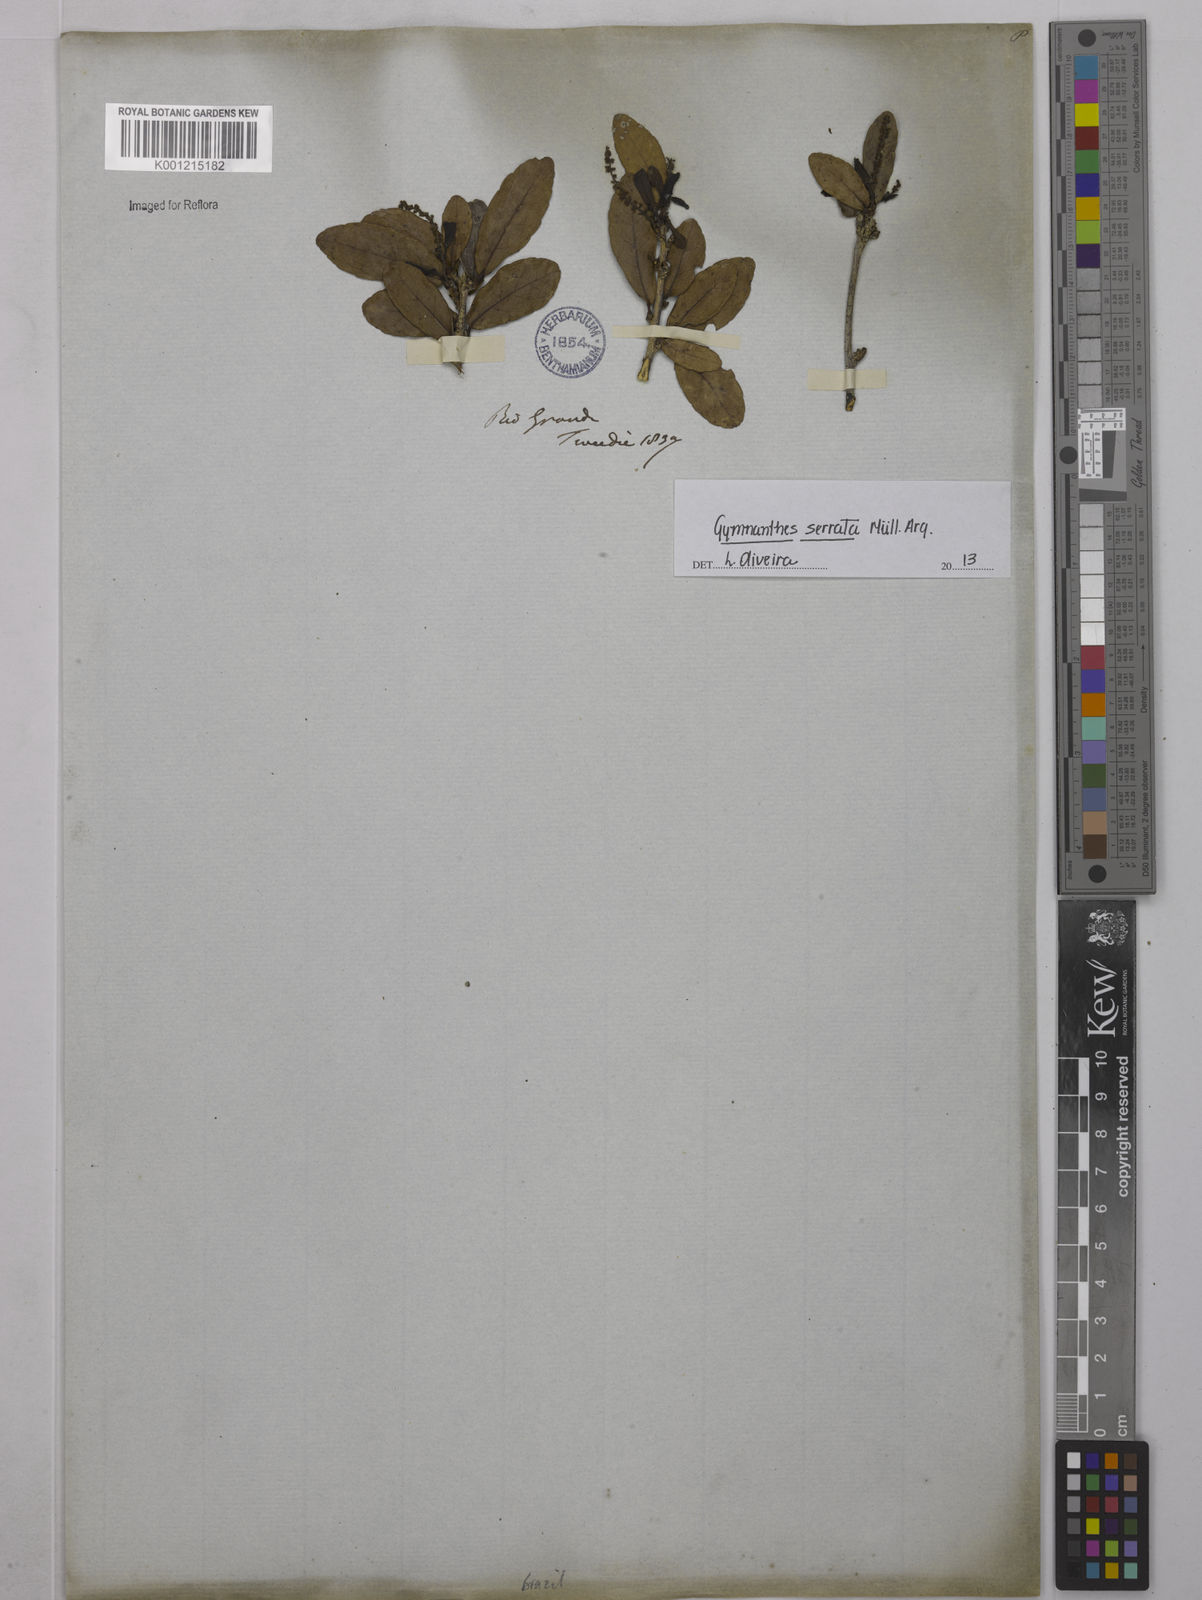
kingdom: Plantae
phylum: Tracheophyta
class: Magnoliopsida
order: Malpighiales
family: Euphorbiaceae
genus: Gymnanthes
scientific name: Gymnanthes
